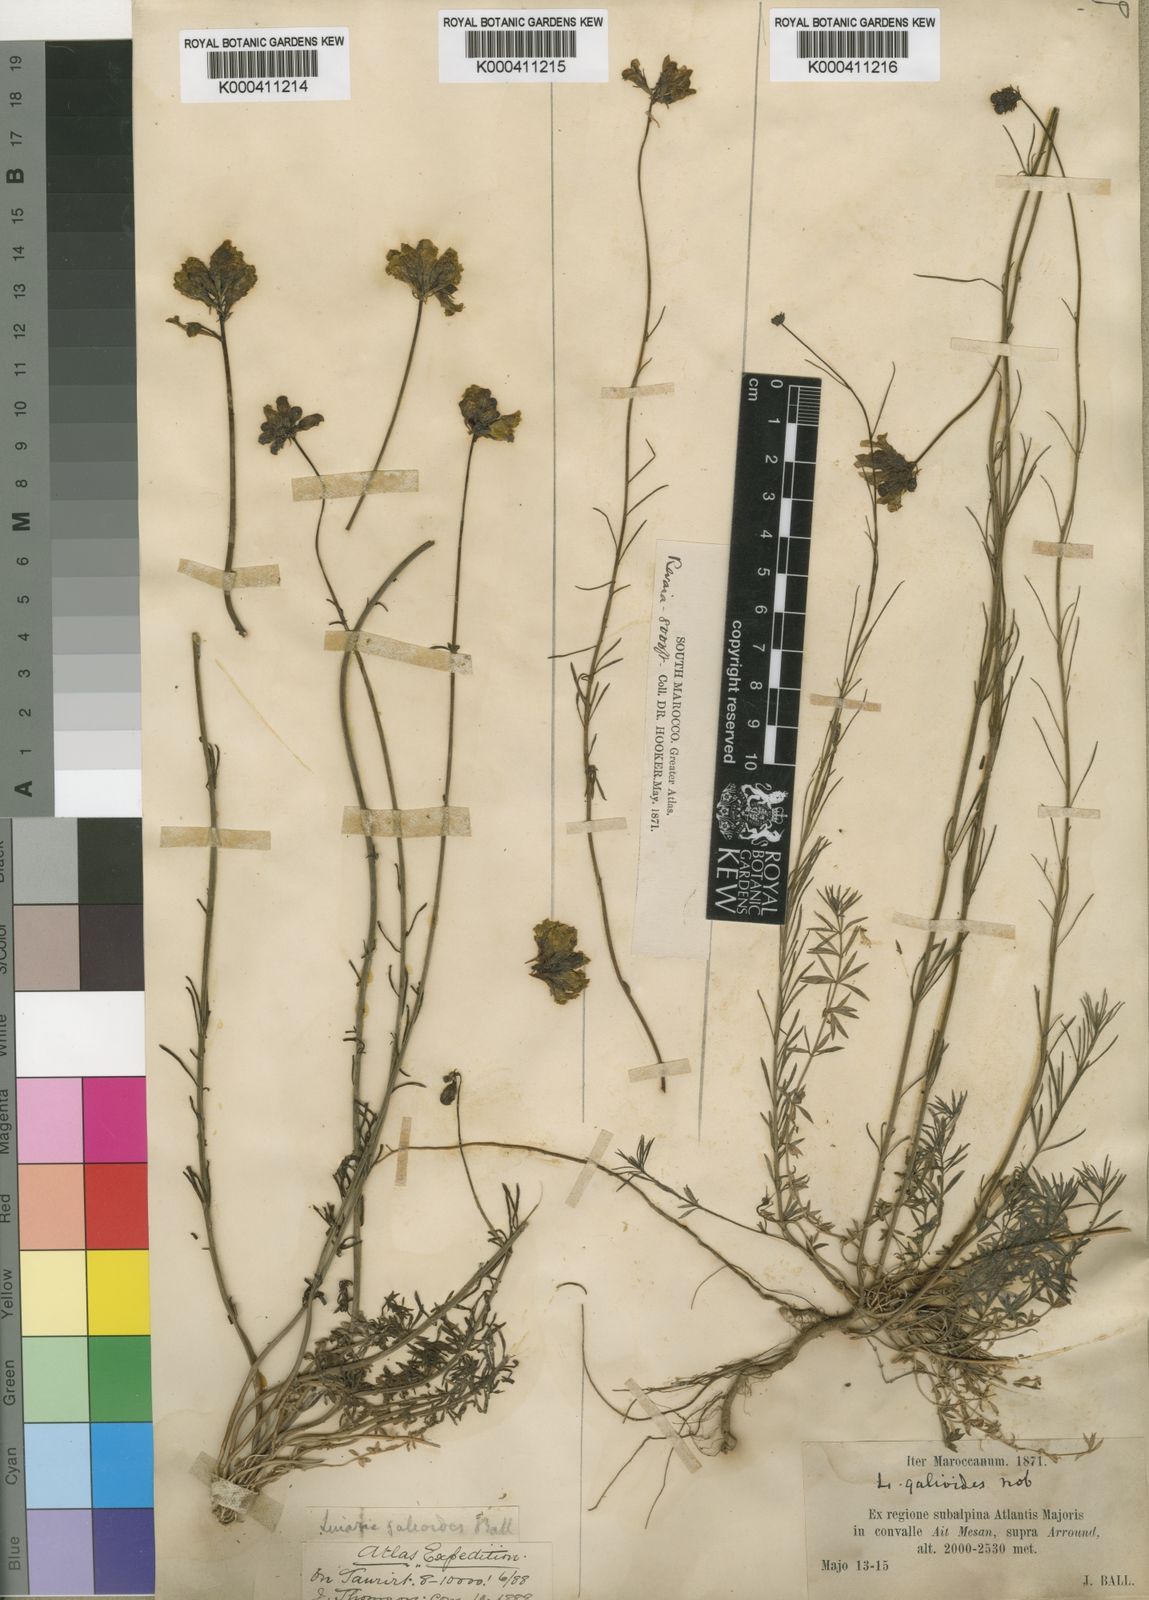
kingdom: Plantae
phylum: Tracheophyta
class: Magnoliopsida
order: Lamiales
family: Plantaginaceae
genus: Linaria
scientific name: Linaria
